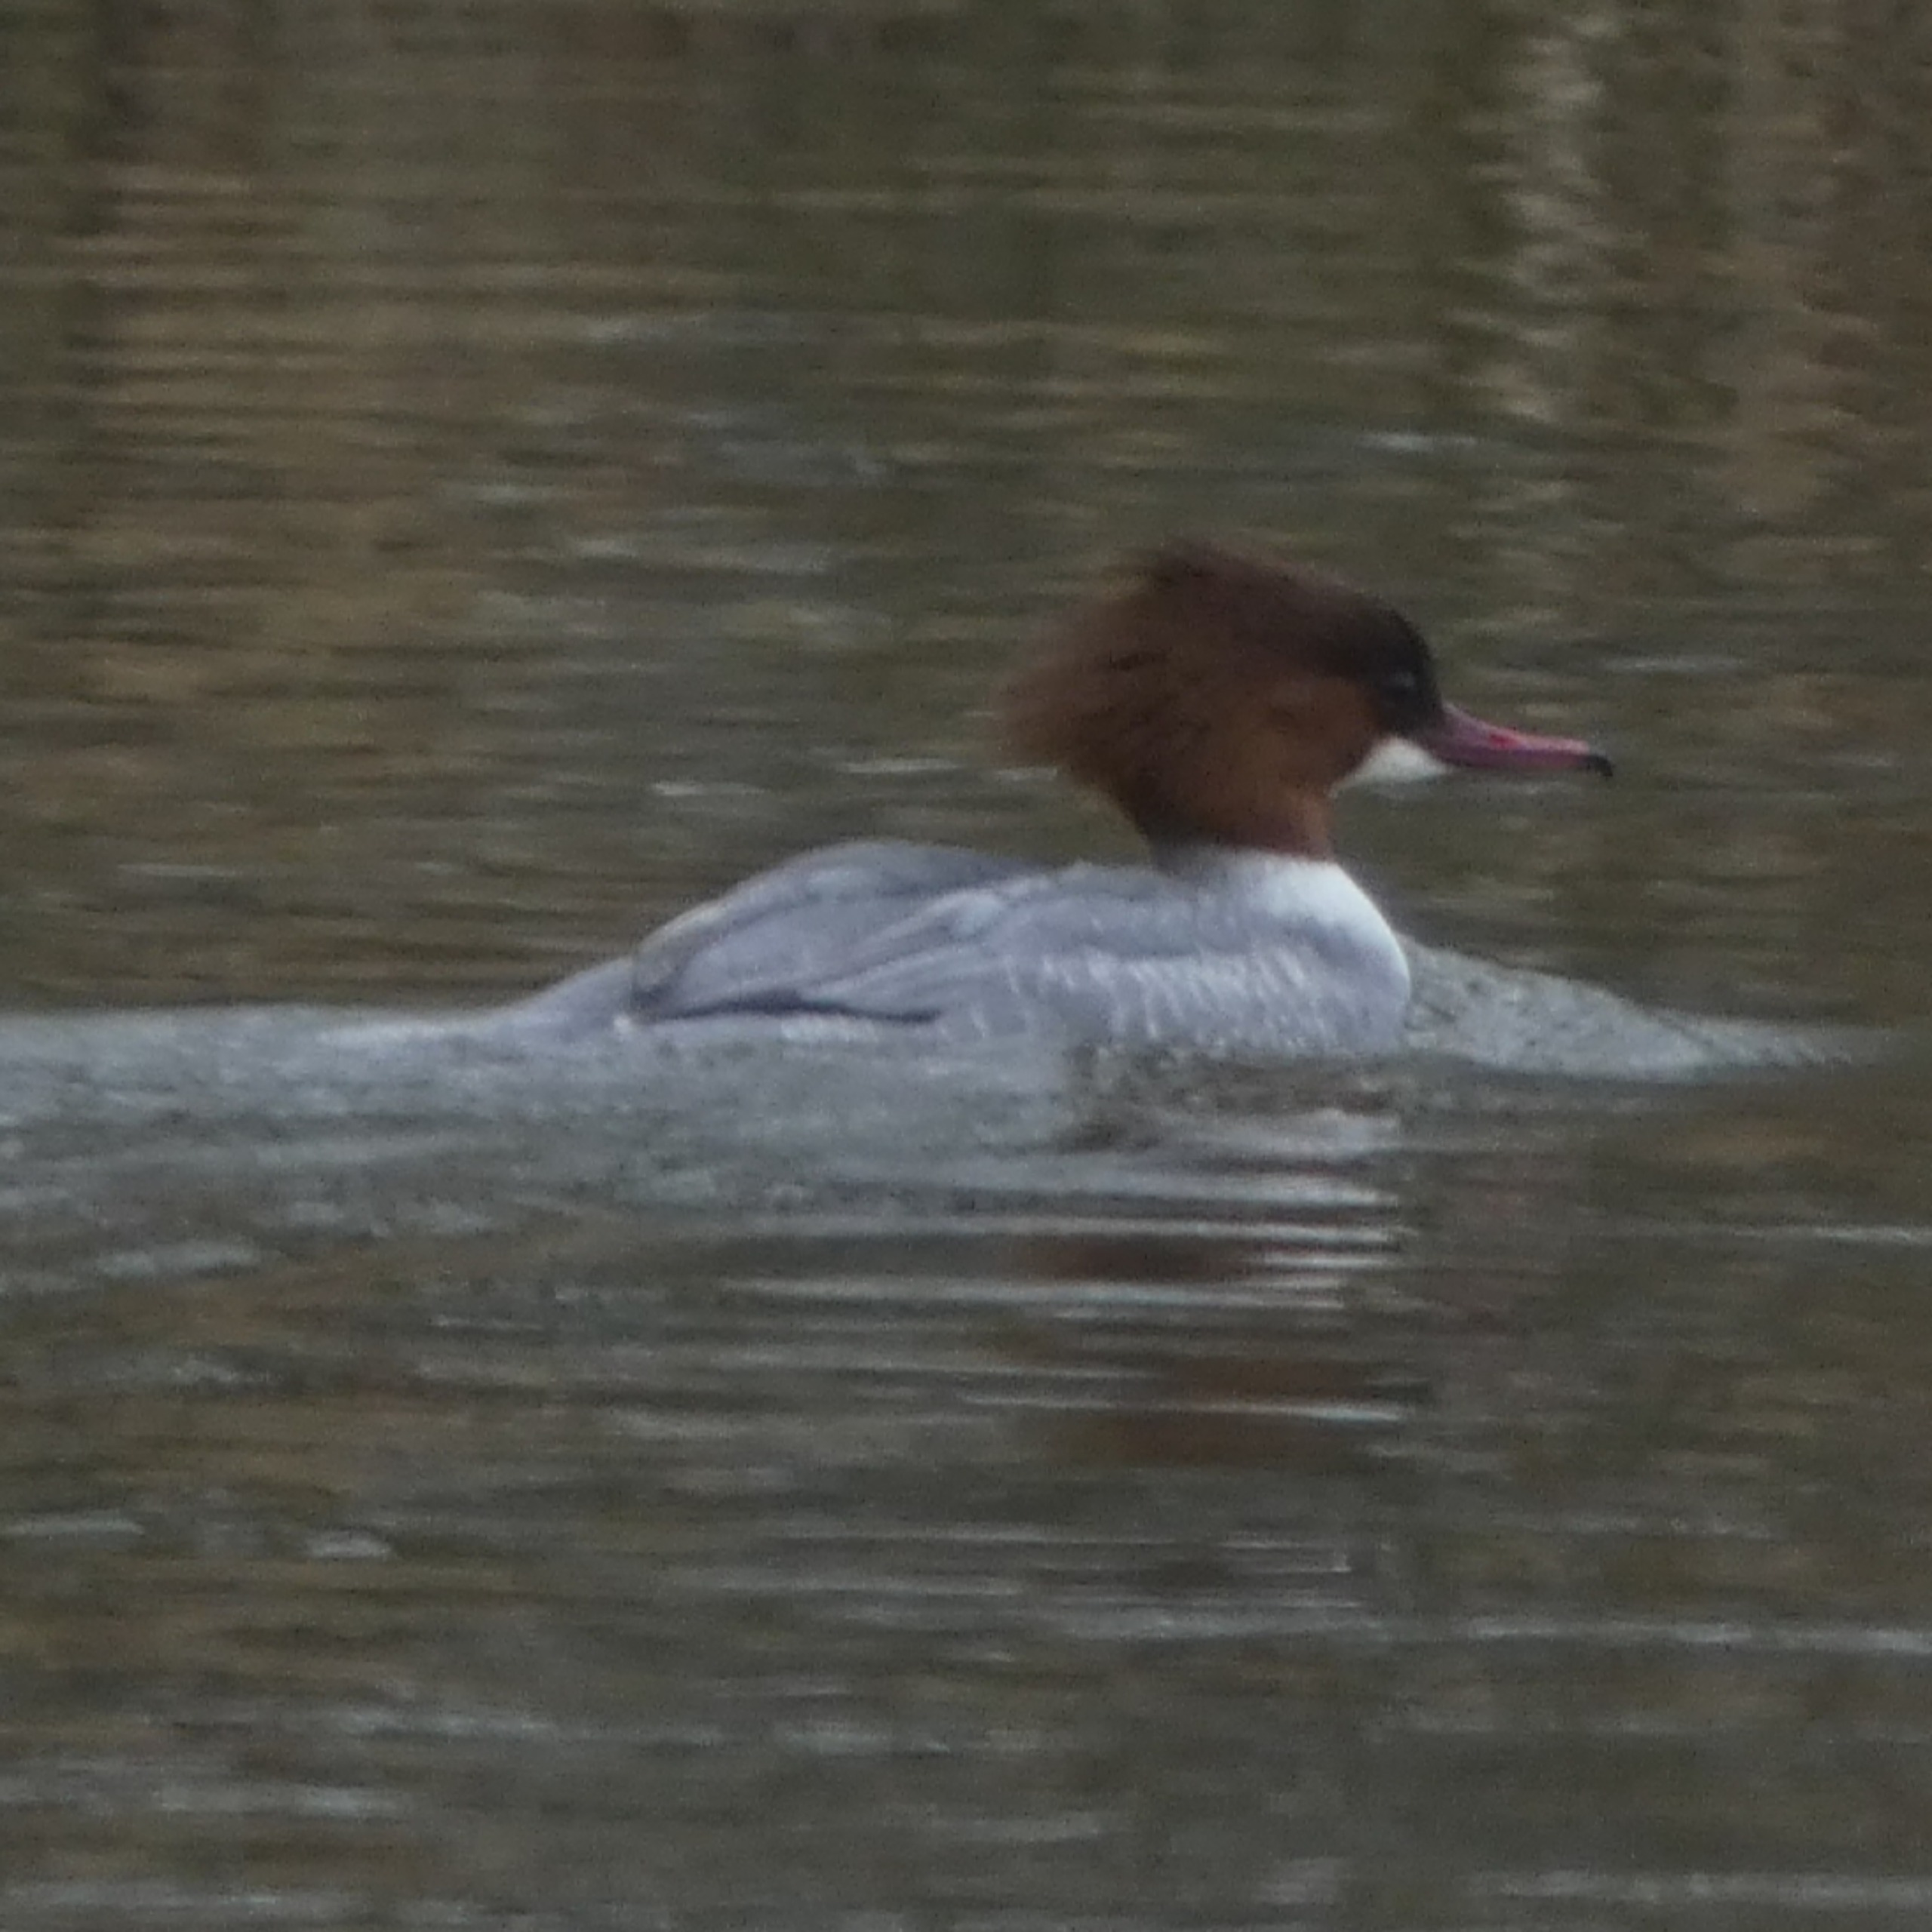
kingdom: Animalia
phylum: Chordata
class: Aves
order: Anseriformes
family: Anatidae
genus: Mergus
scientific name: Mergus merganser
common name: Stor skallesluger
